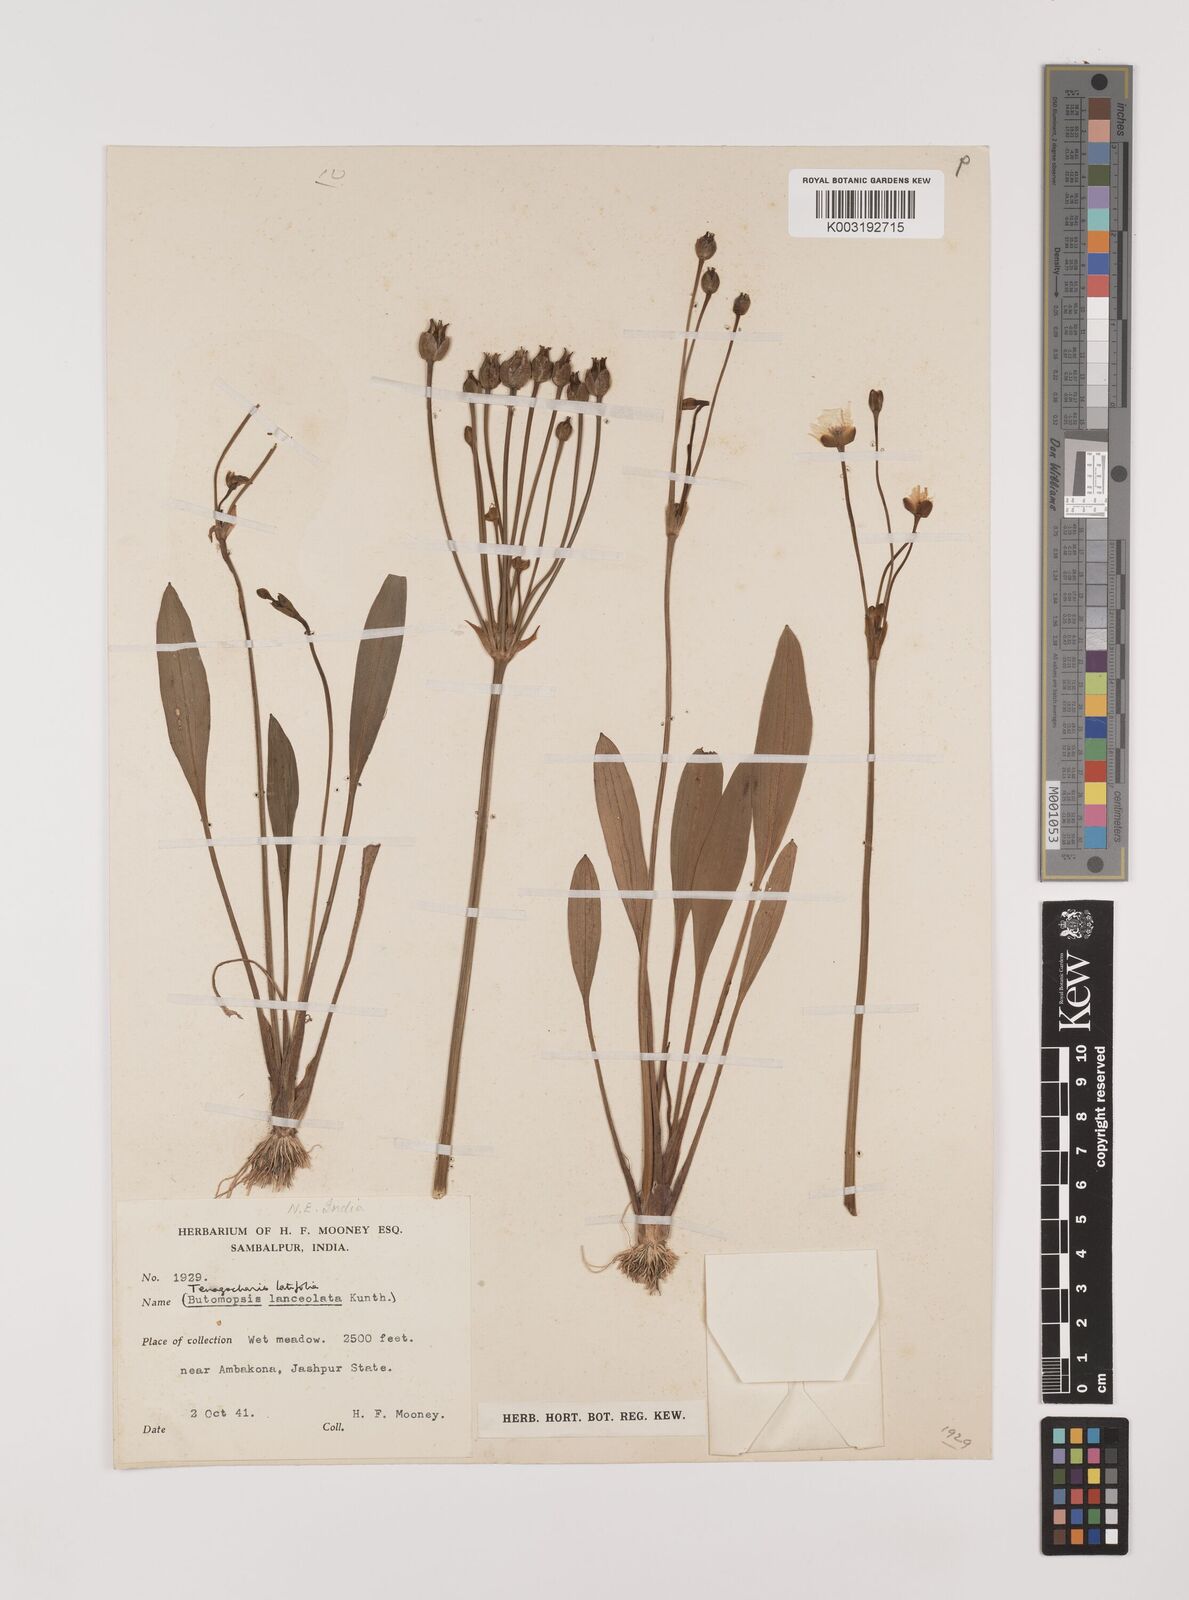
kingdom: Plantae
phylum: Tracheophyta
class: Liliopsida
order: Alismatales
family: Alismataceae
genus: Butomopsis
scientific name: Butomopsis latifolia
